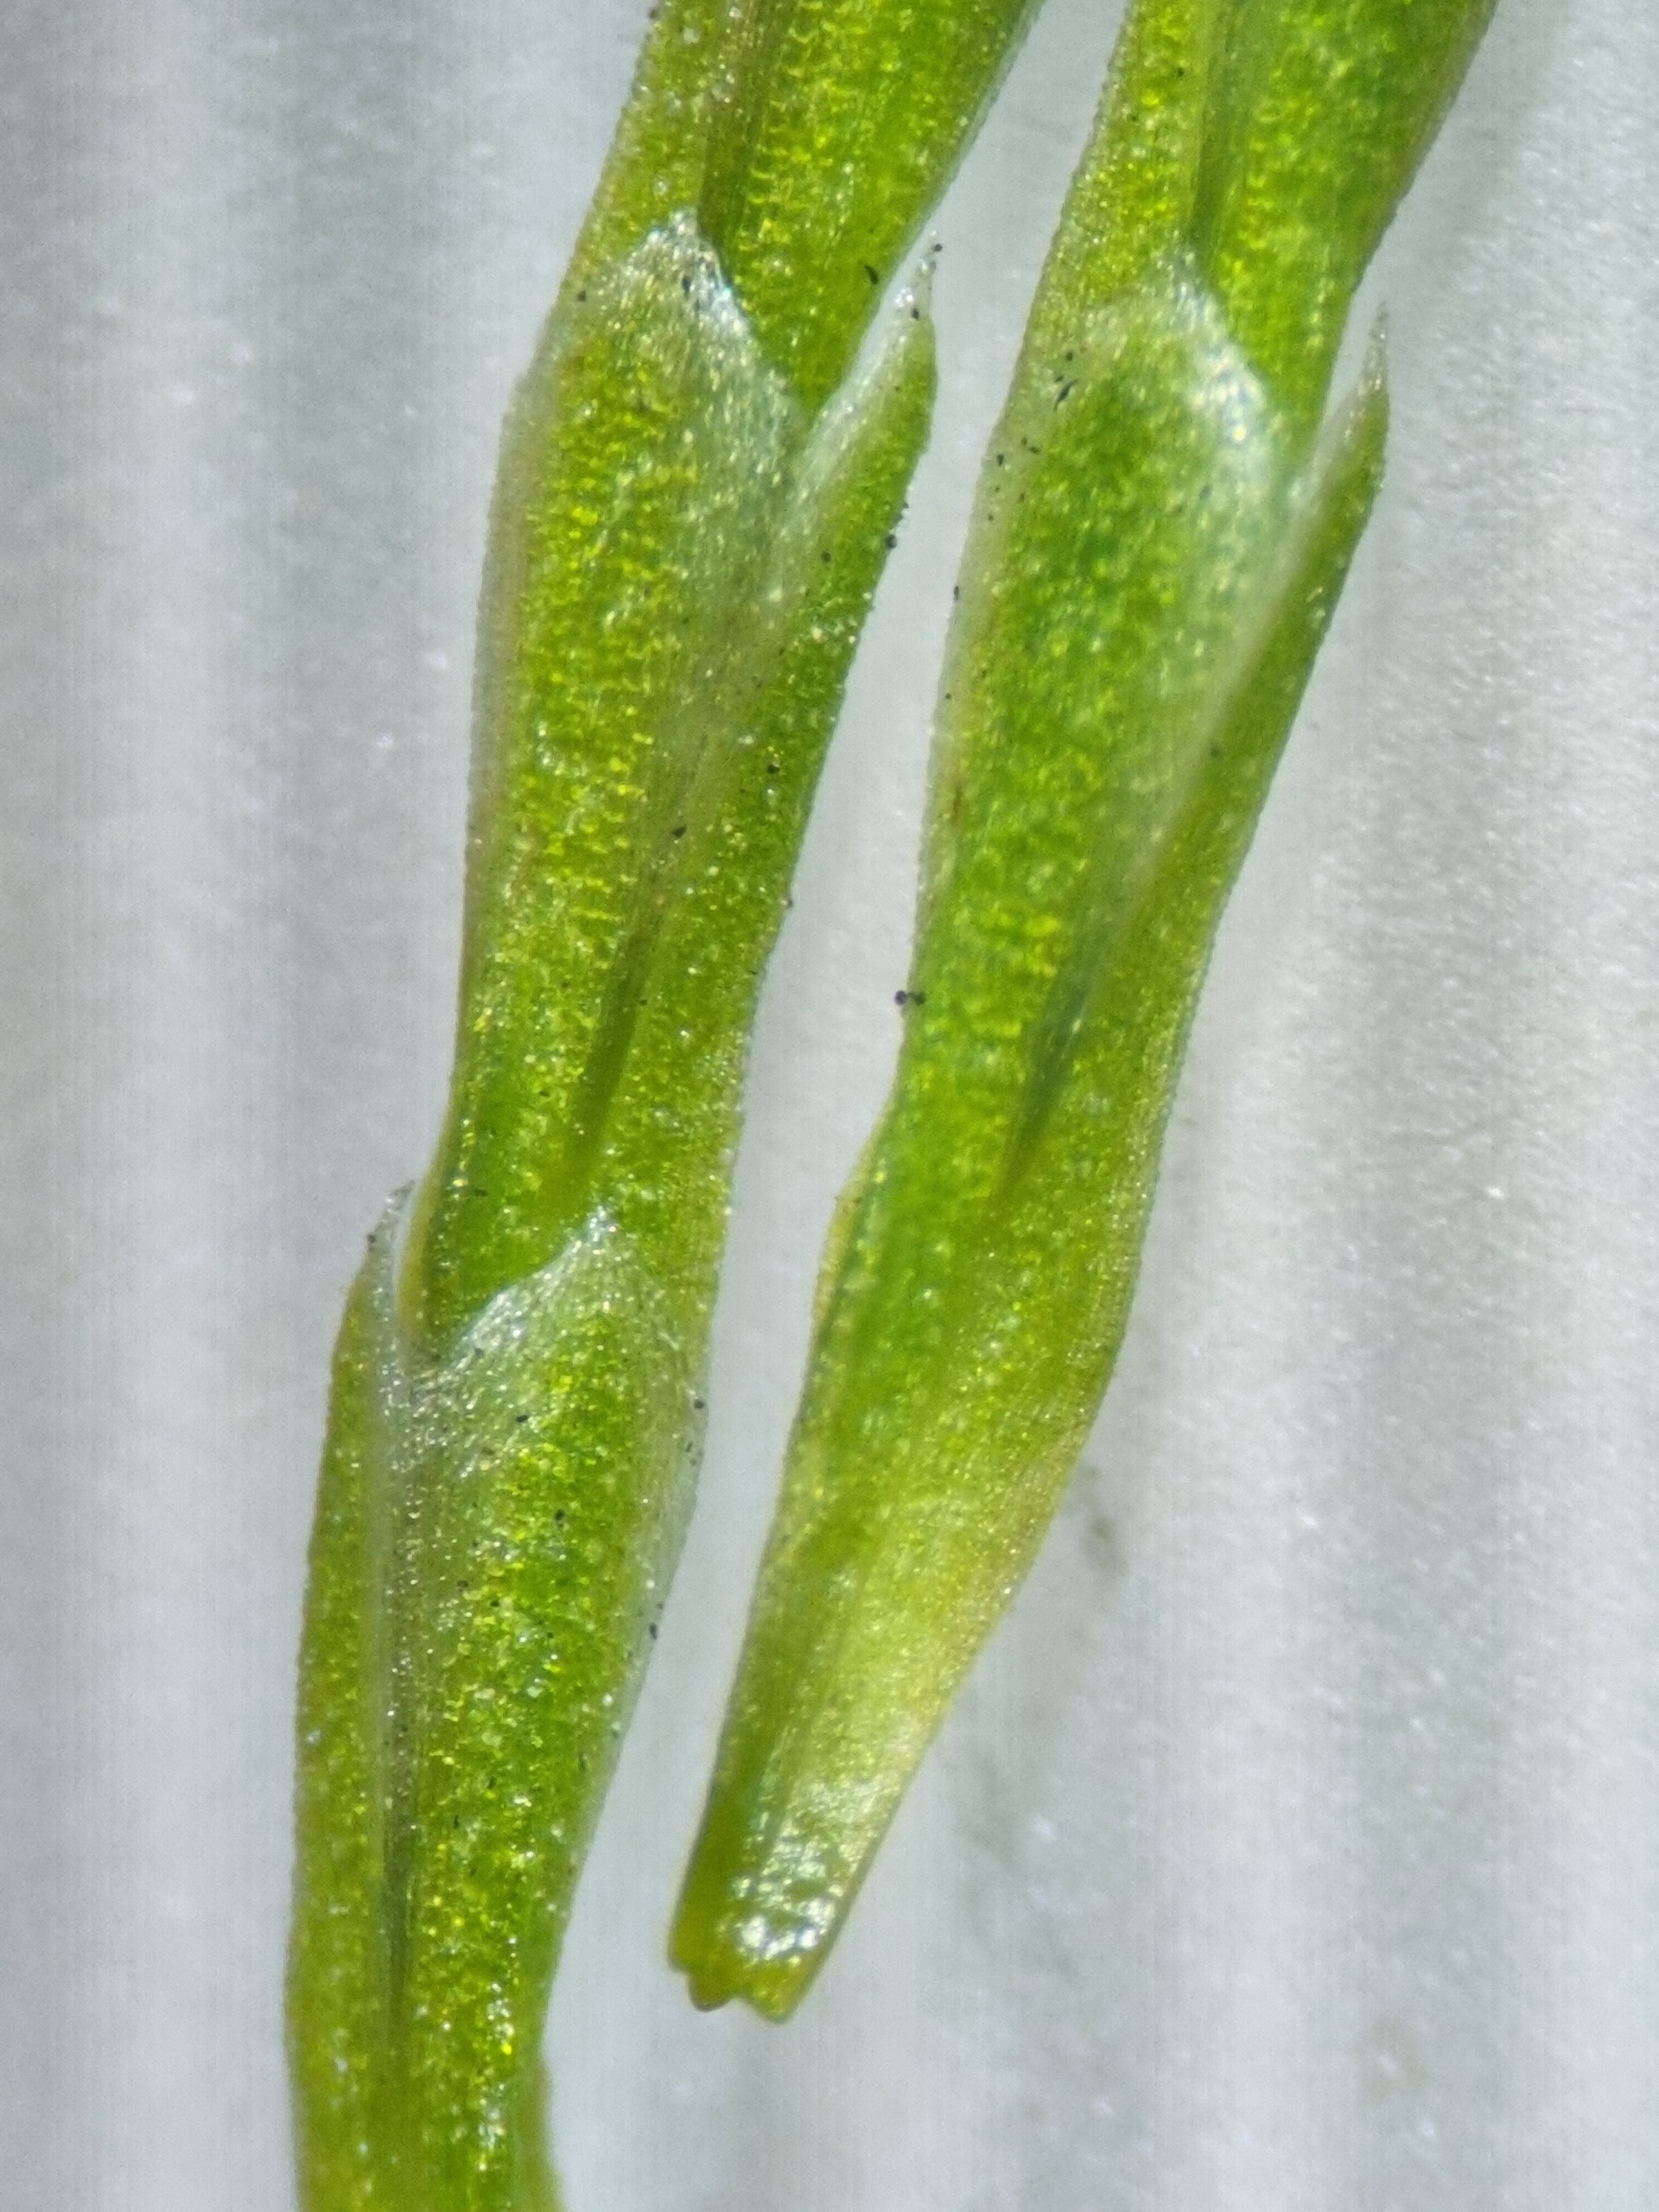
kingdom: Plantae
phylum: Tracheophyta
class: Polypodiopsida
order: Equisetales
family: Equisetaceae
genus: Equisetum
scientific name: Equisetum pratense
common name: Lund-padderok
